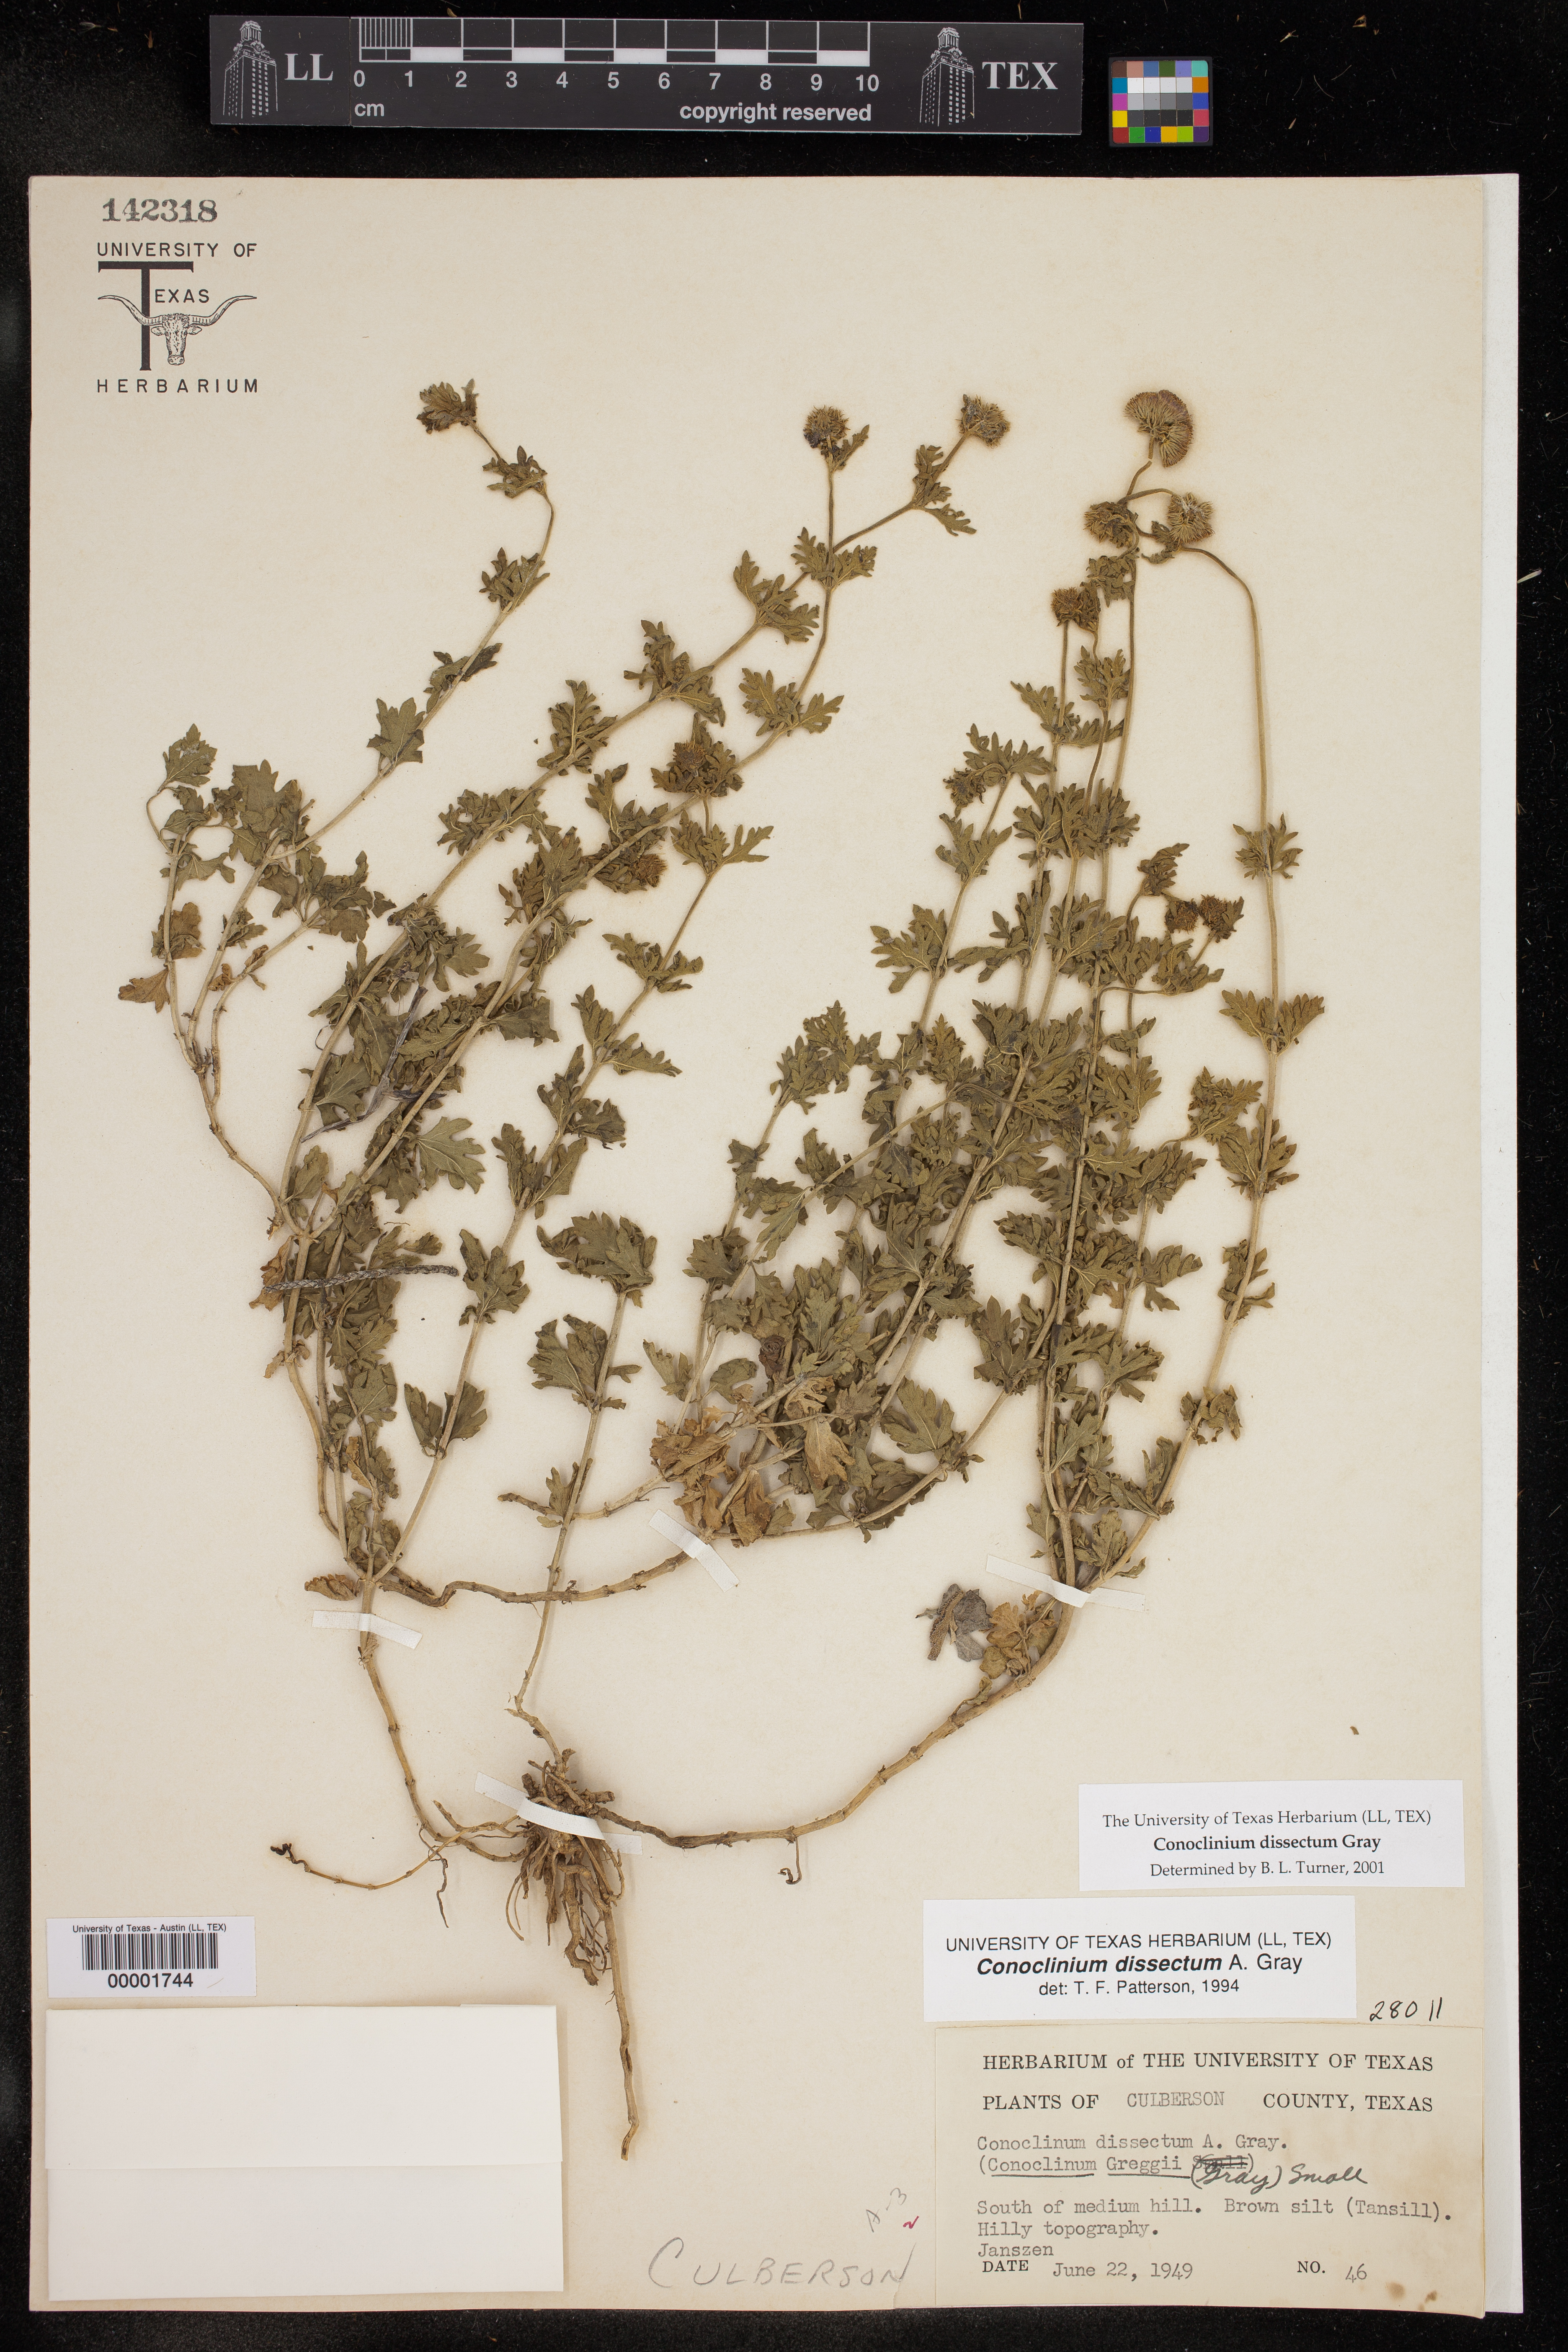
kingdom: Plantae
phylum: Tracheophyta
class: Magnoliopsida
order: Asterales
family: Asteraceae
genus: Conoclinium
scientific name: Conoclinium dissectum
